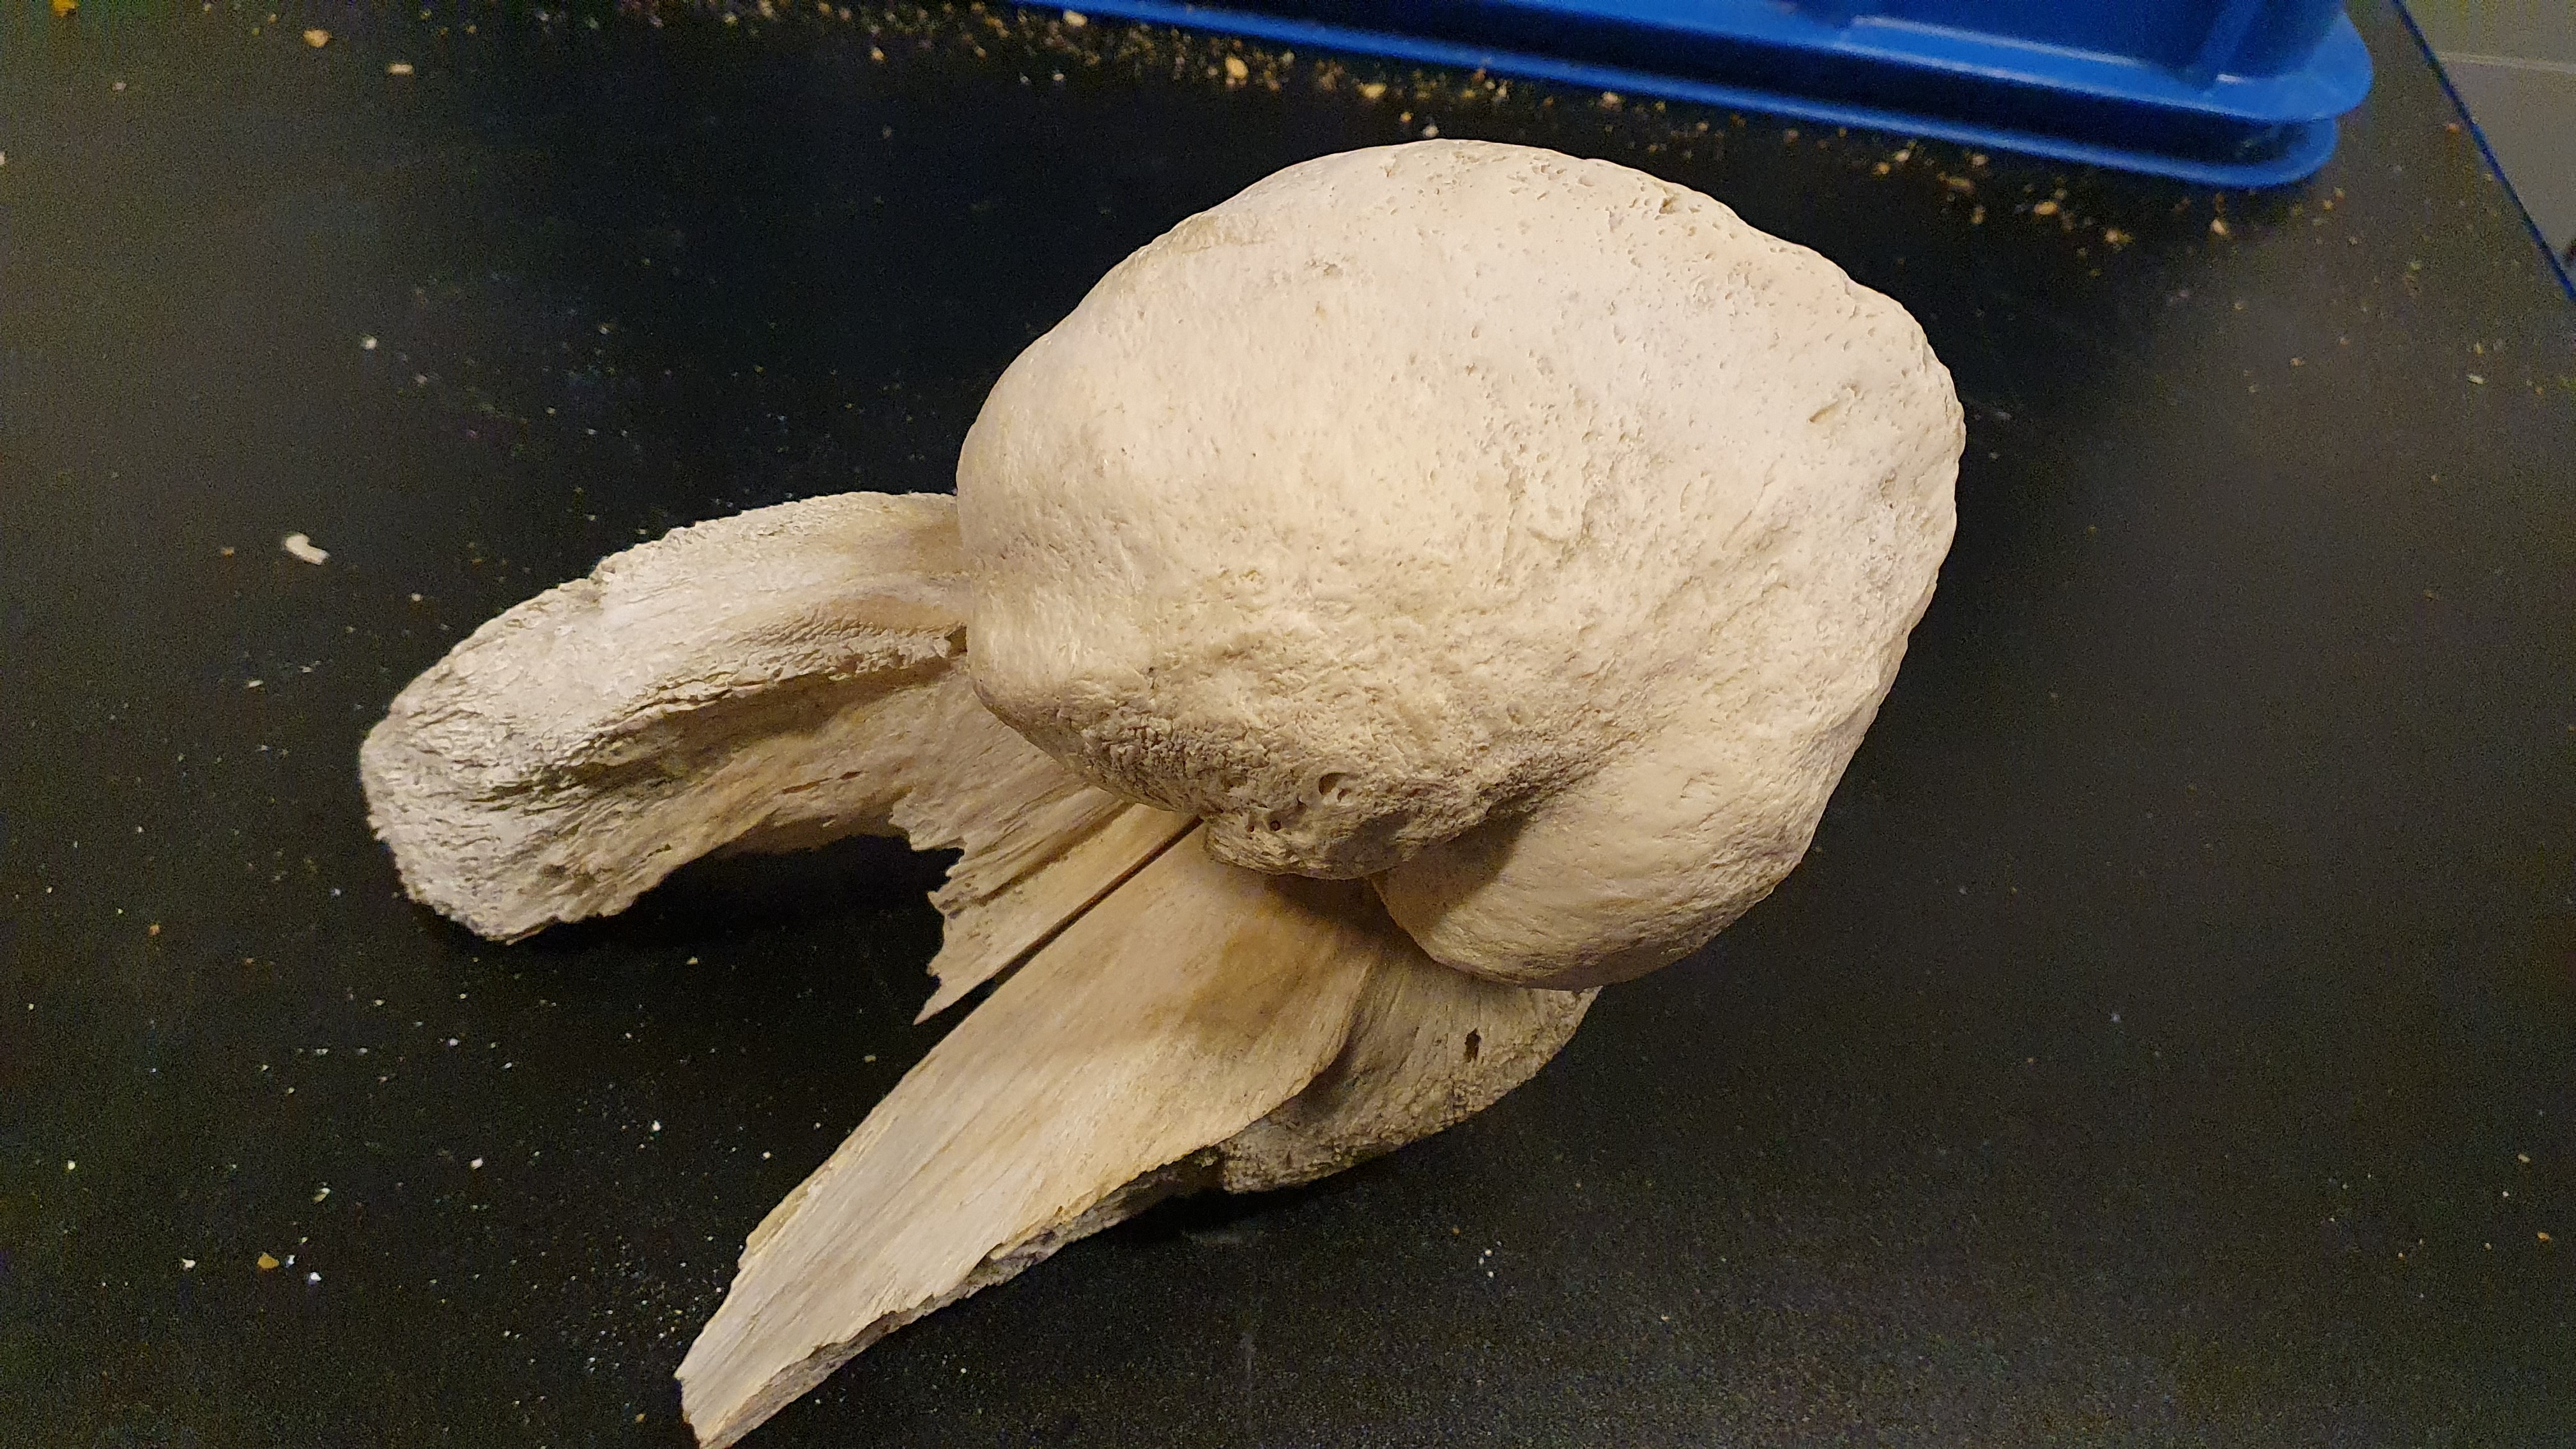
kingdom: Animalia
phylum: Chordata
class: Mammalia
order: Cetacea
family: Balaenidae
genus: Eubalaena
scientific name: Eubalaena glacialis
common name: North atlantic right whale
